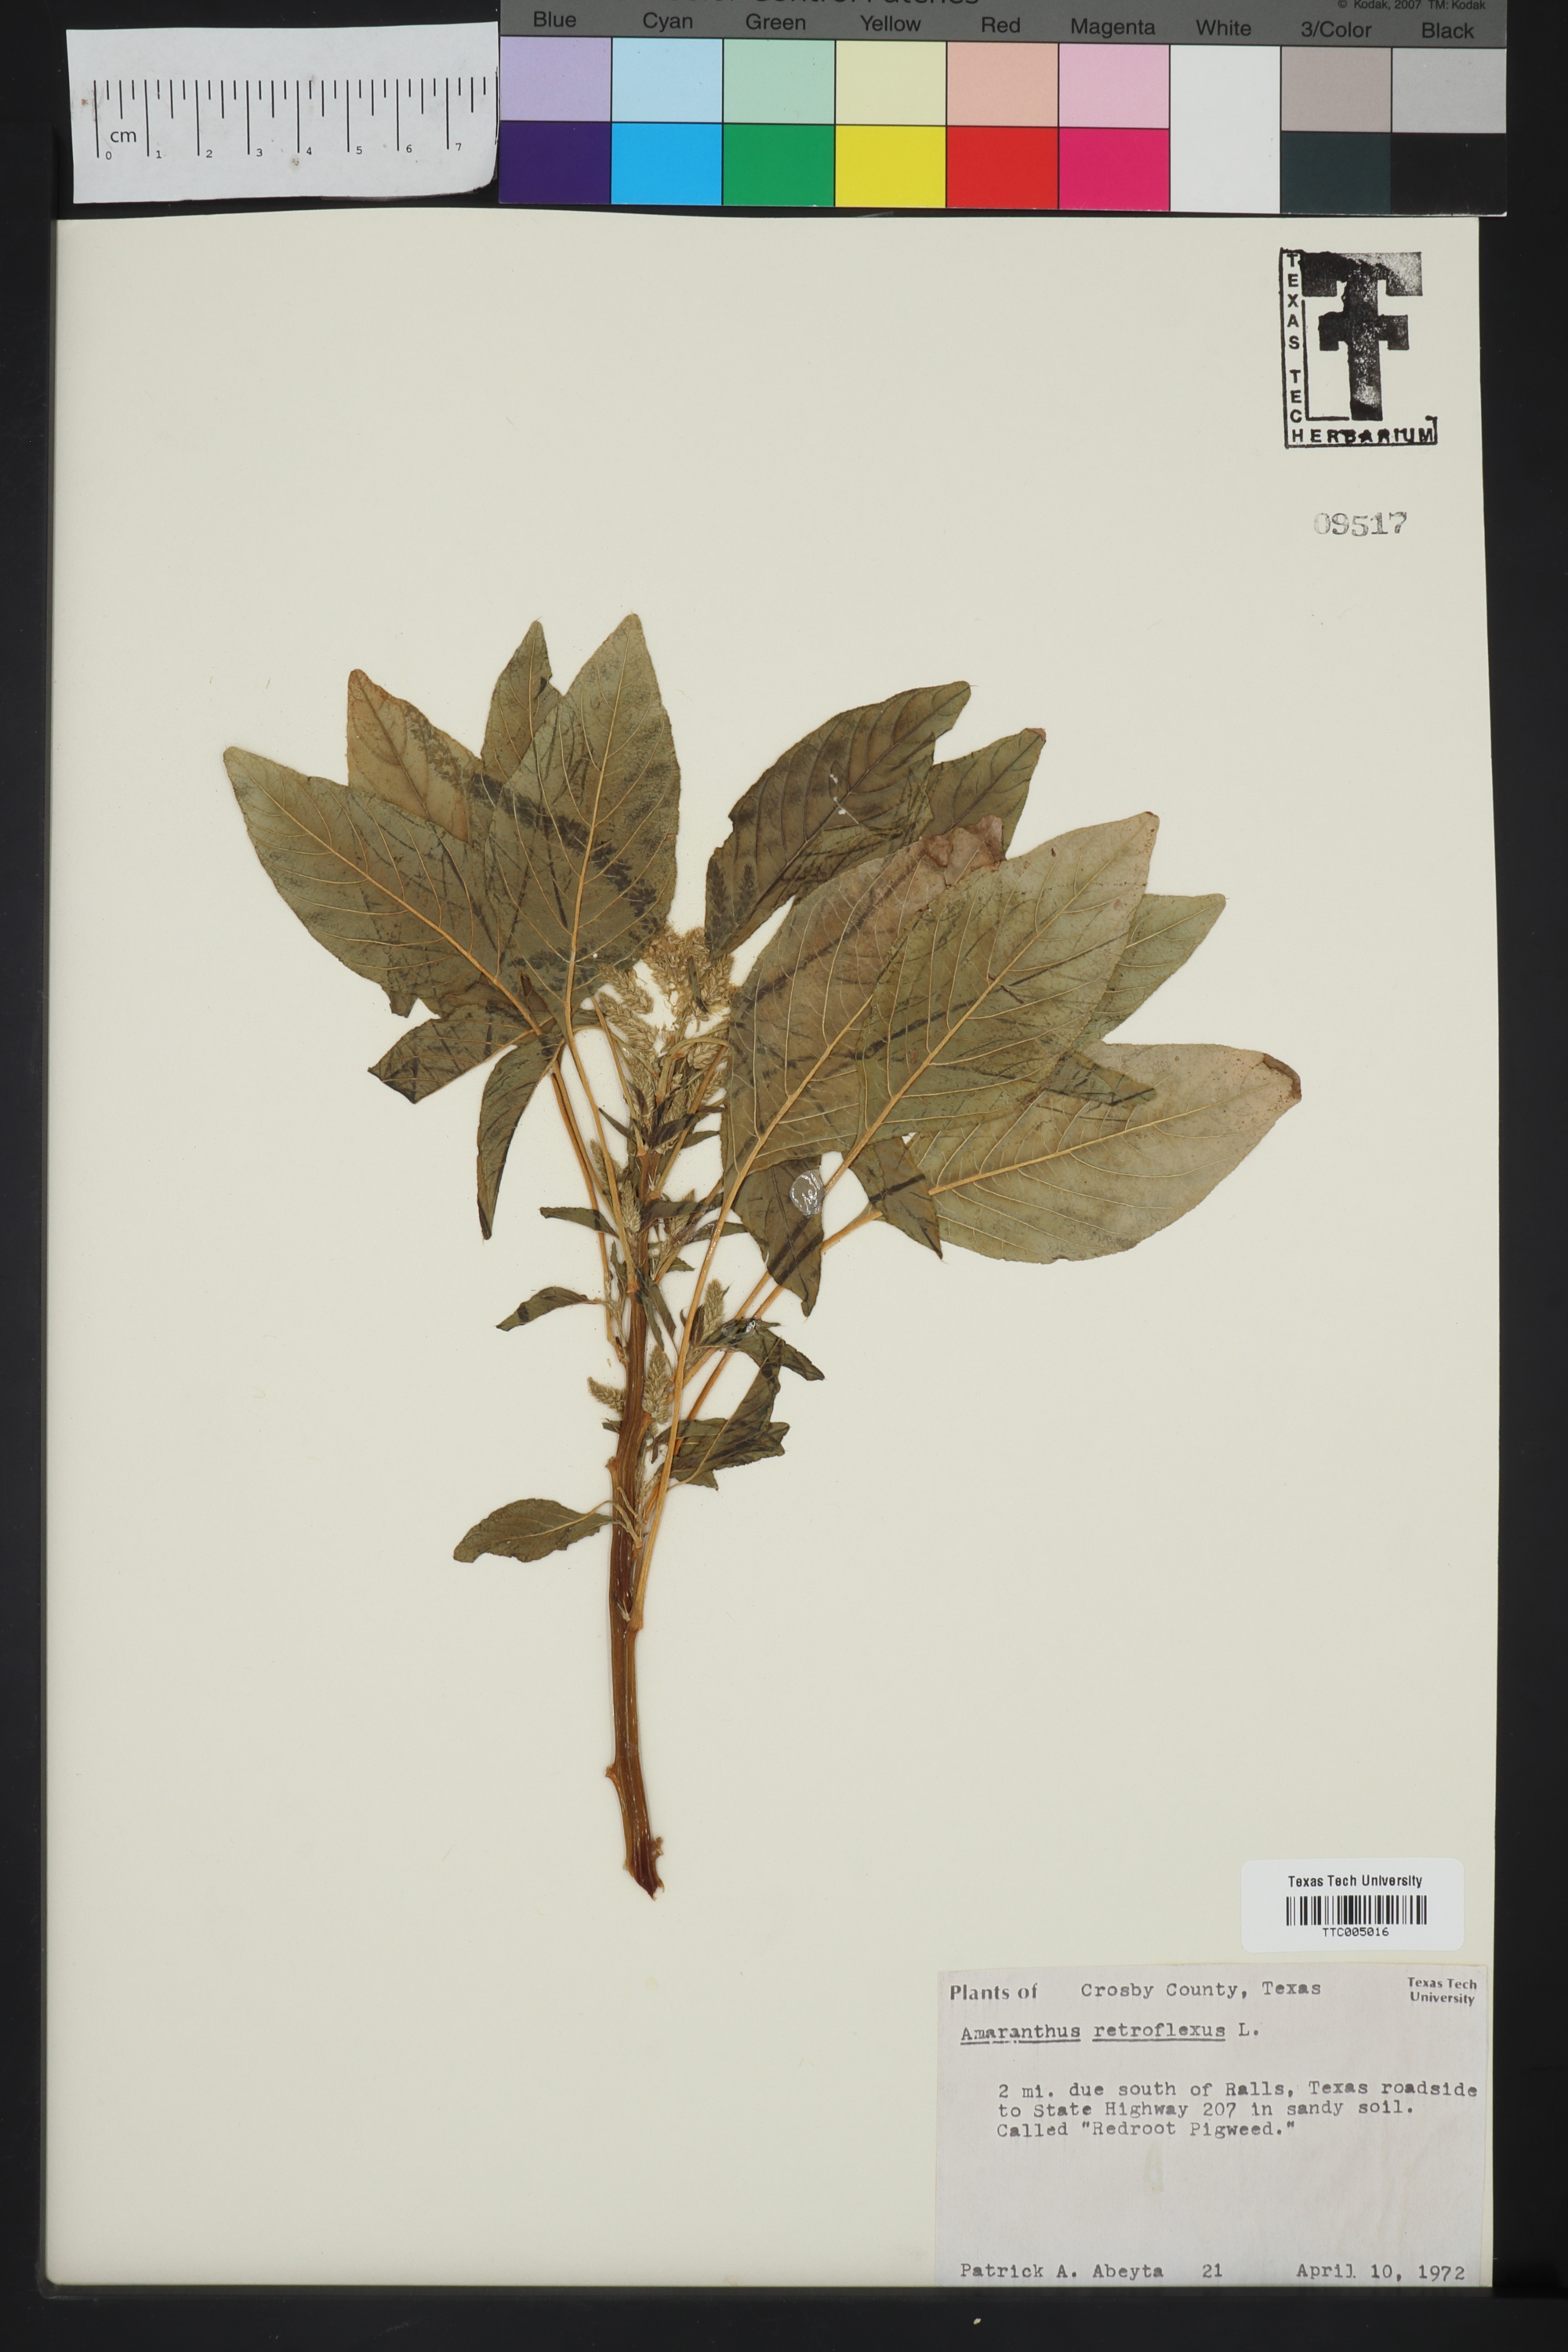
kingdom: Plantae
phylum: Tracheophyta
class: Magnoliopsida
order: Caryophyllales
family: Amaranthaceae
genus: Amaranthus
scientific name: Amaranthus retroflexus
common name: Redroot amaranth
